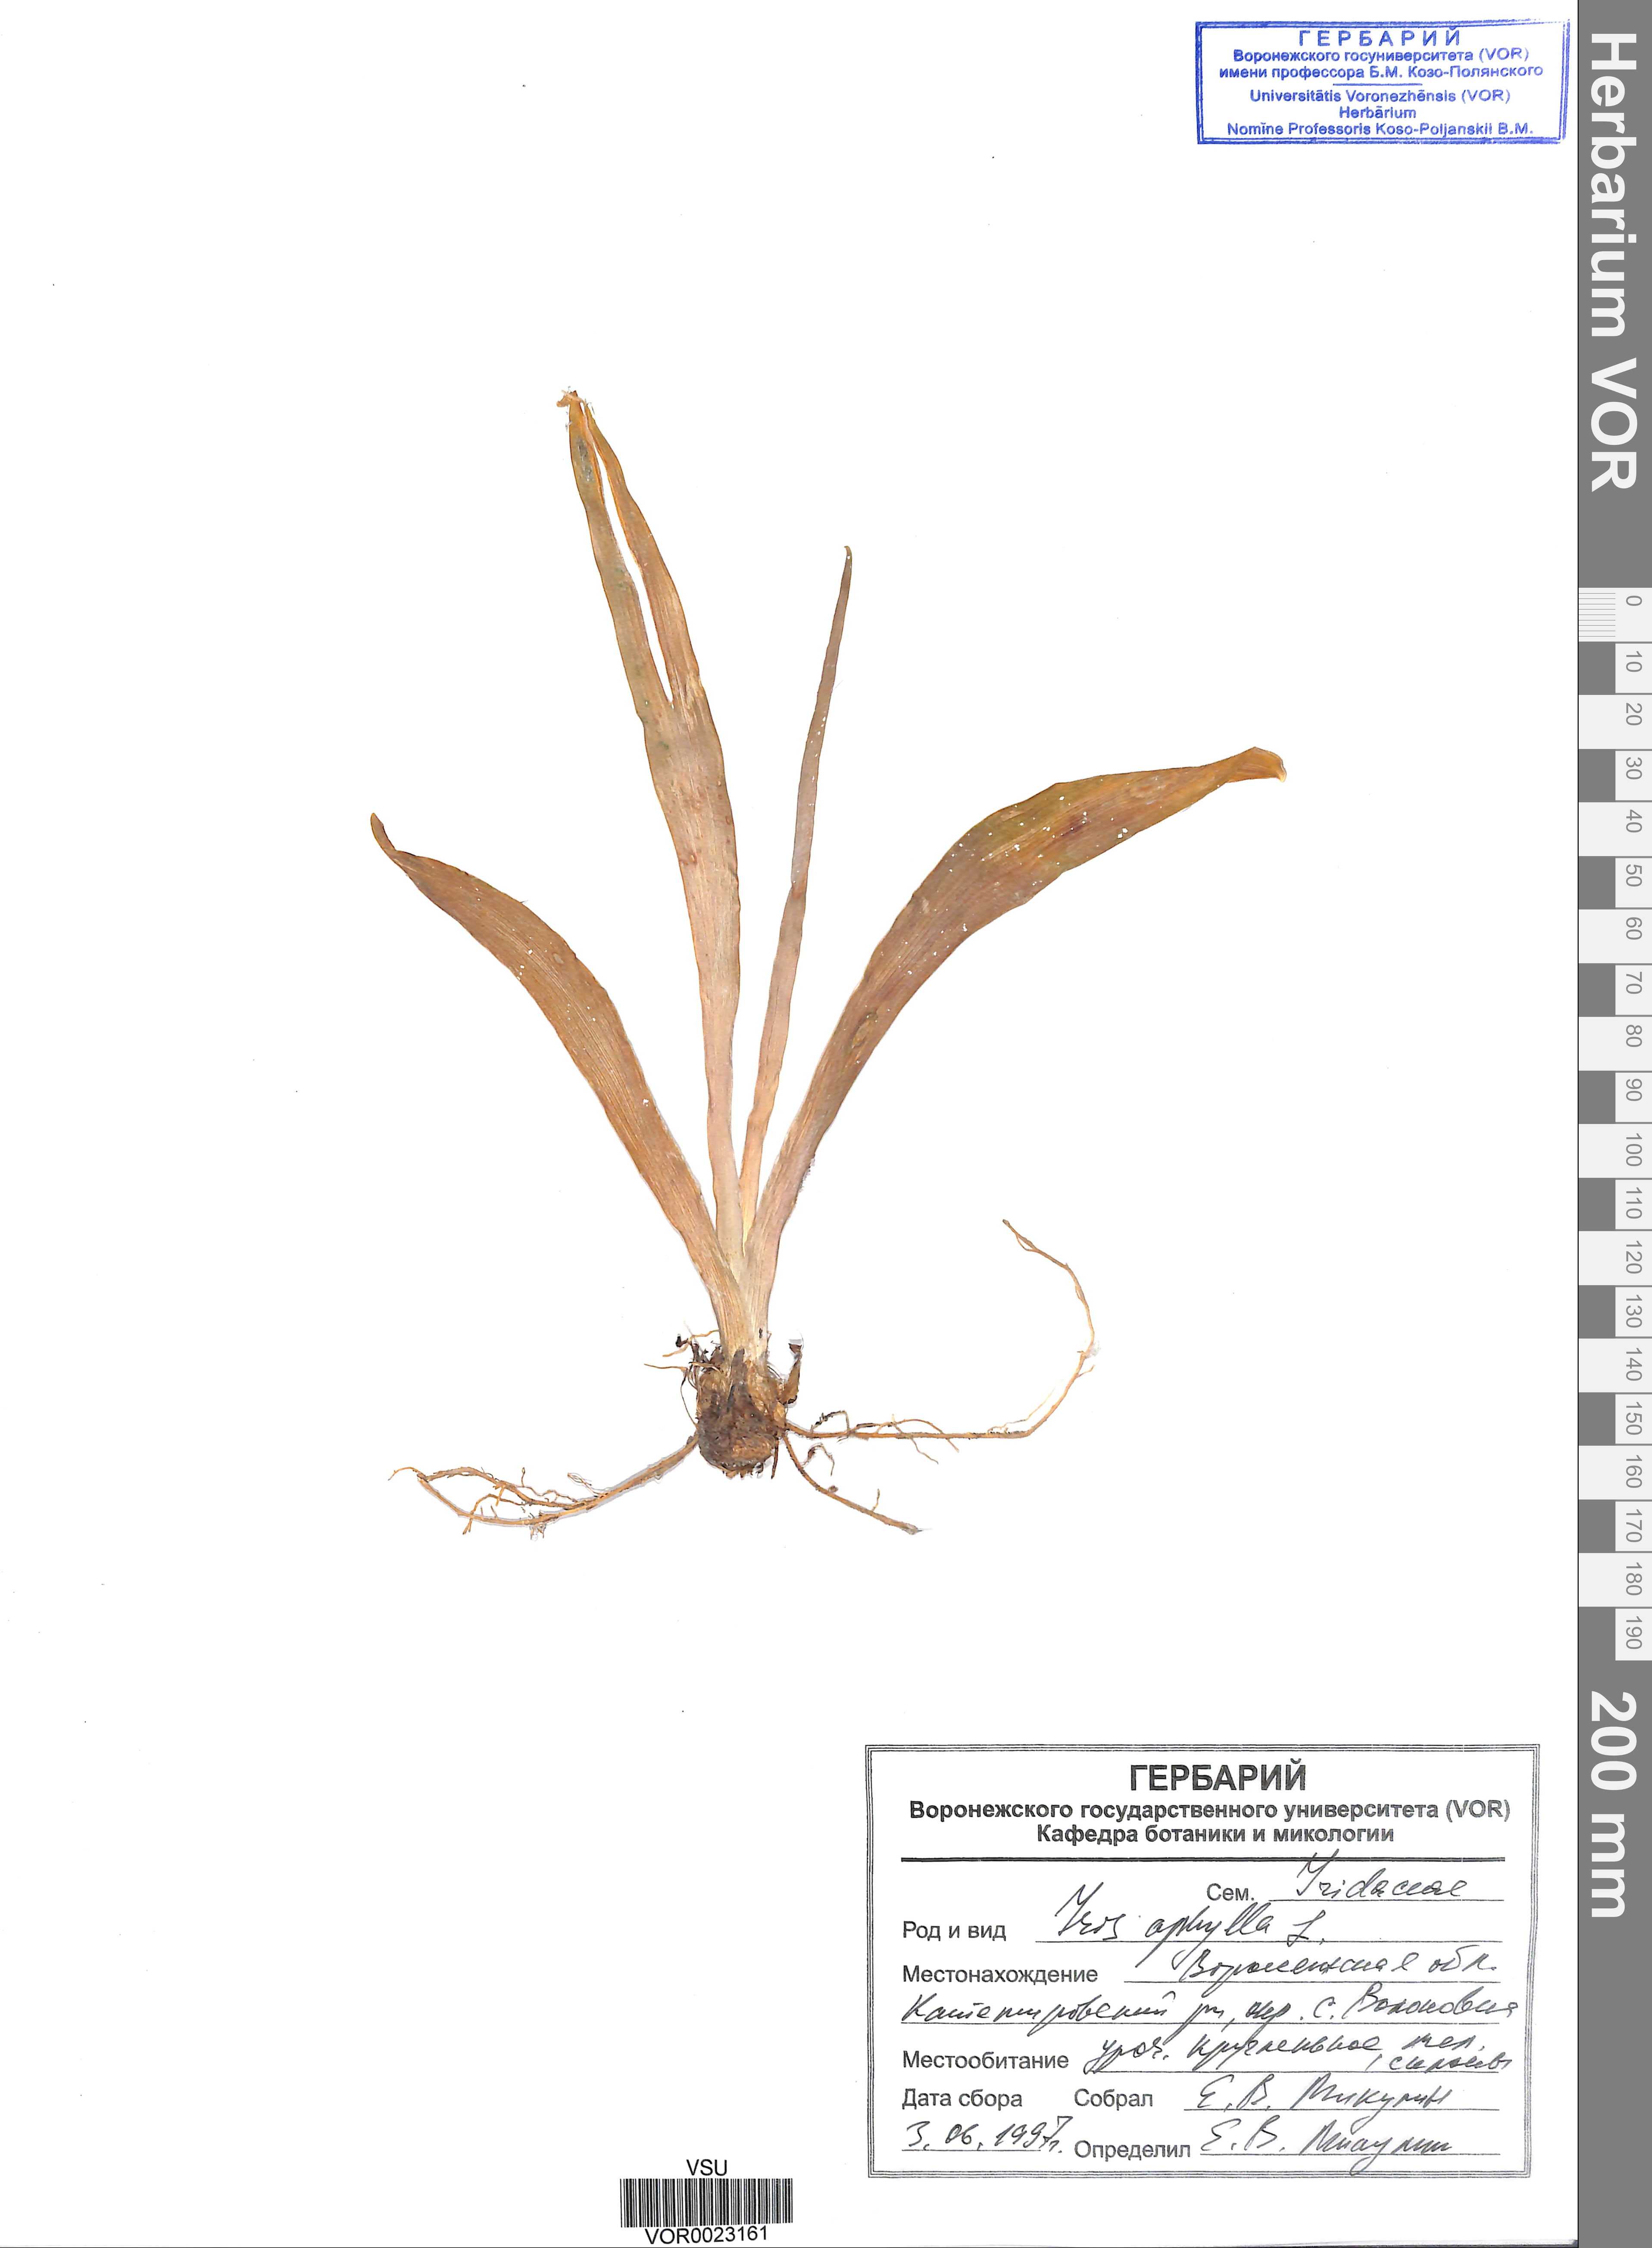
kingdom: Plantae
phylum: Tracheophyta
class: Liliopsida
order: Asparagales
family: Iridaceae
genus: Iris
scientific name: Iris aphylla
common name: Stool iris
